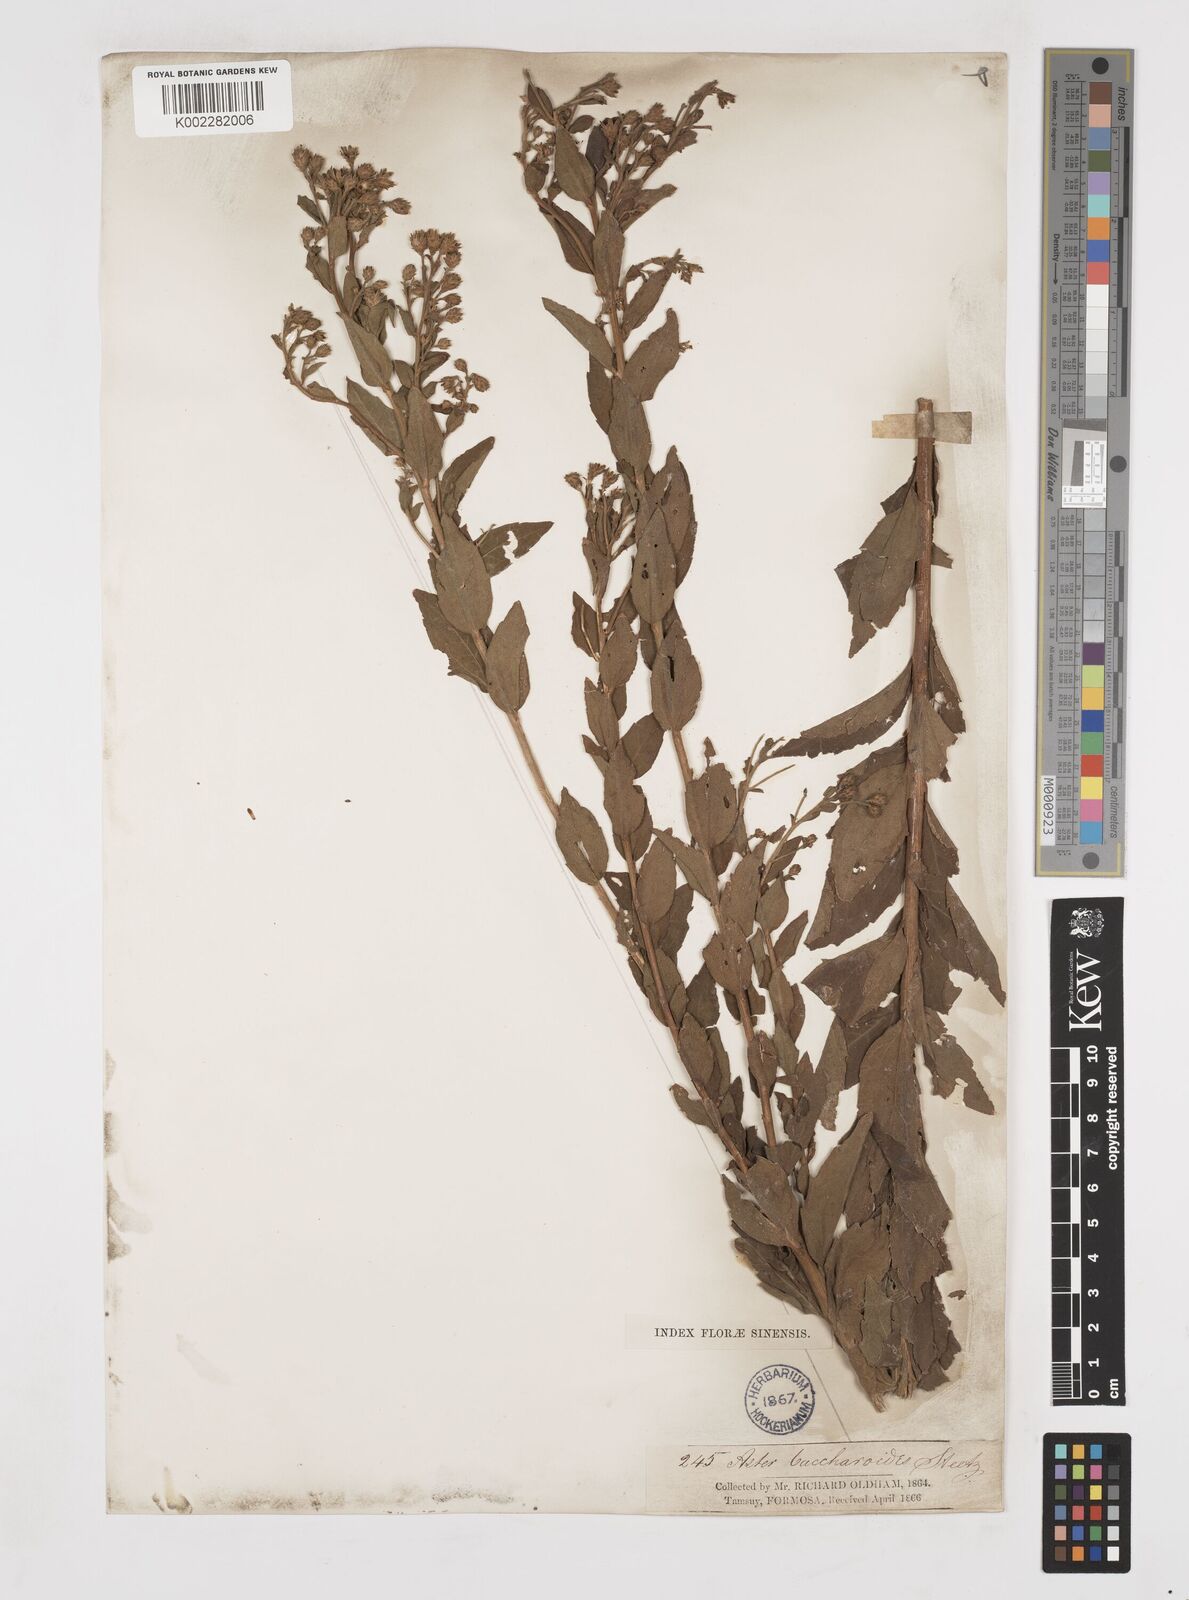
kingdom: Plantae
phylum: Tracheophyta
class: Magnoliopsida
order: Asterales
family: Asteraceae
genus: Aster
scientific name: Aster baccharoides
